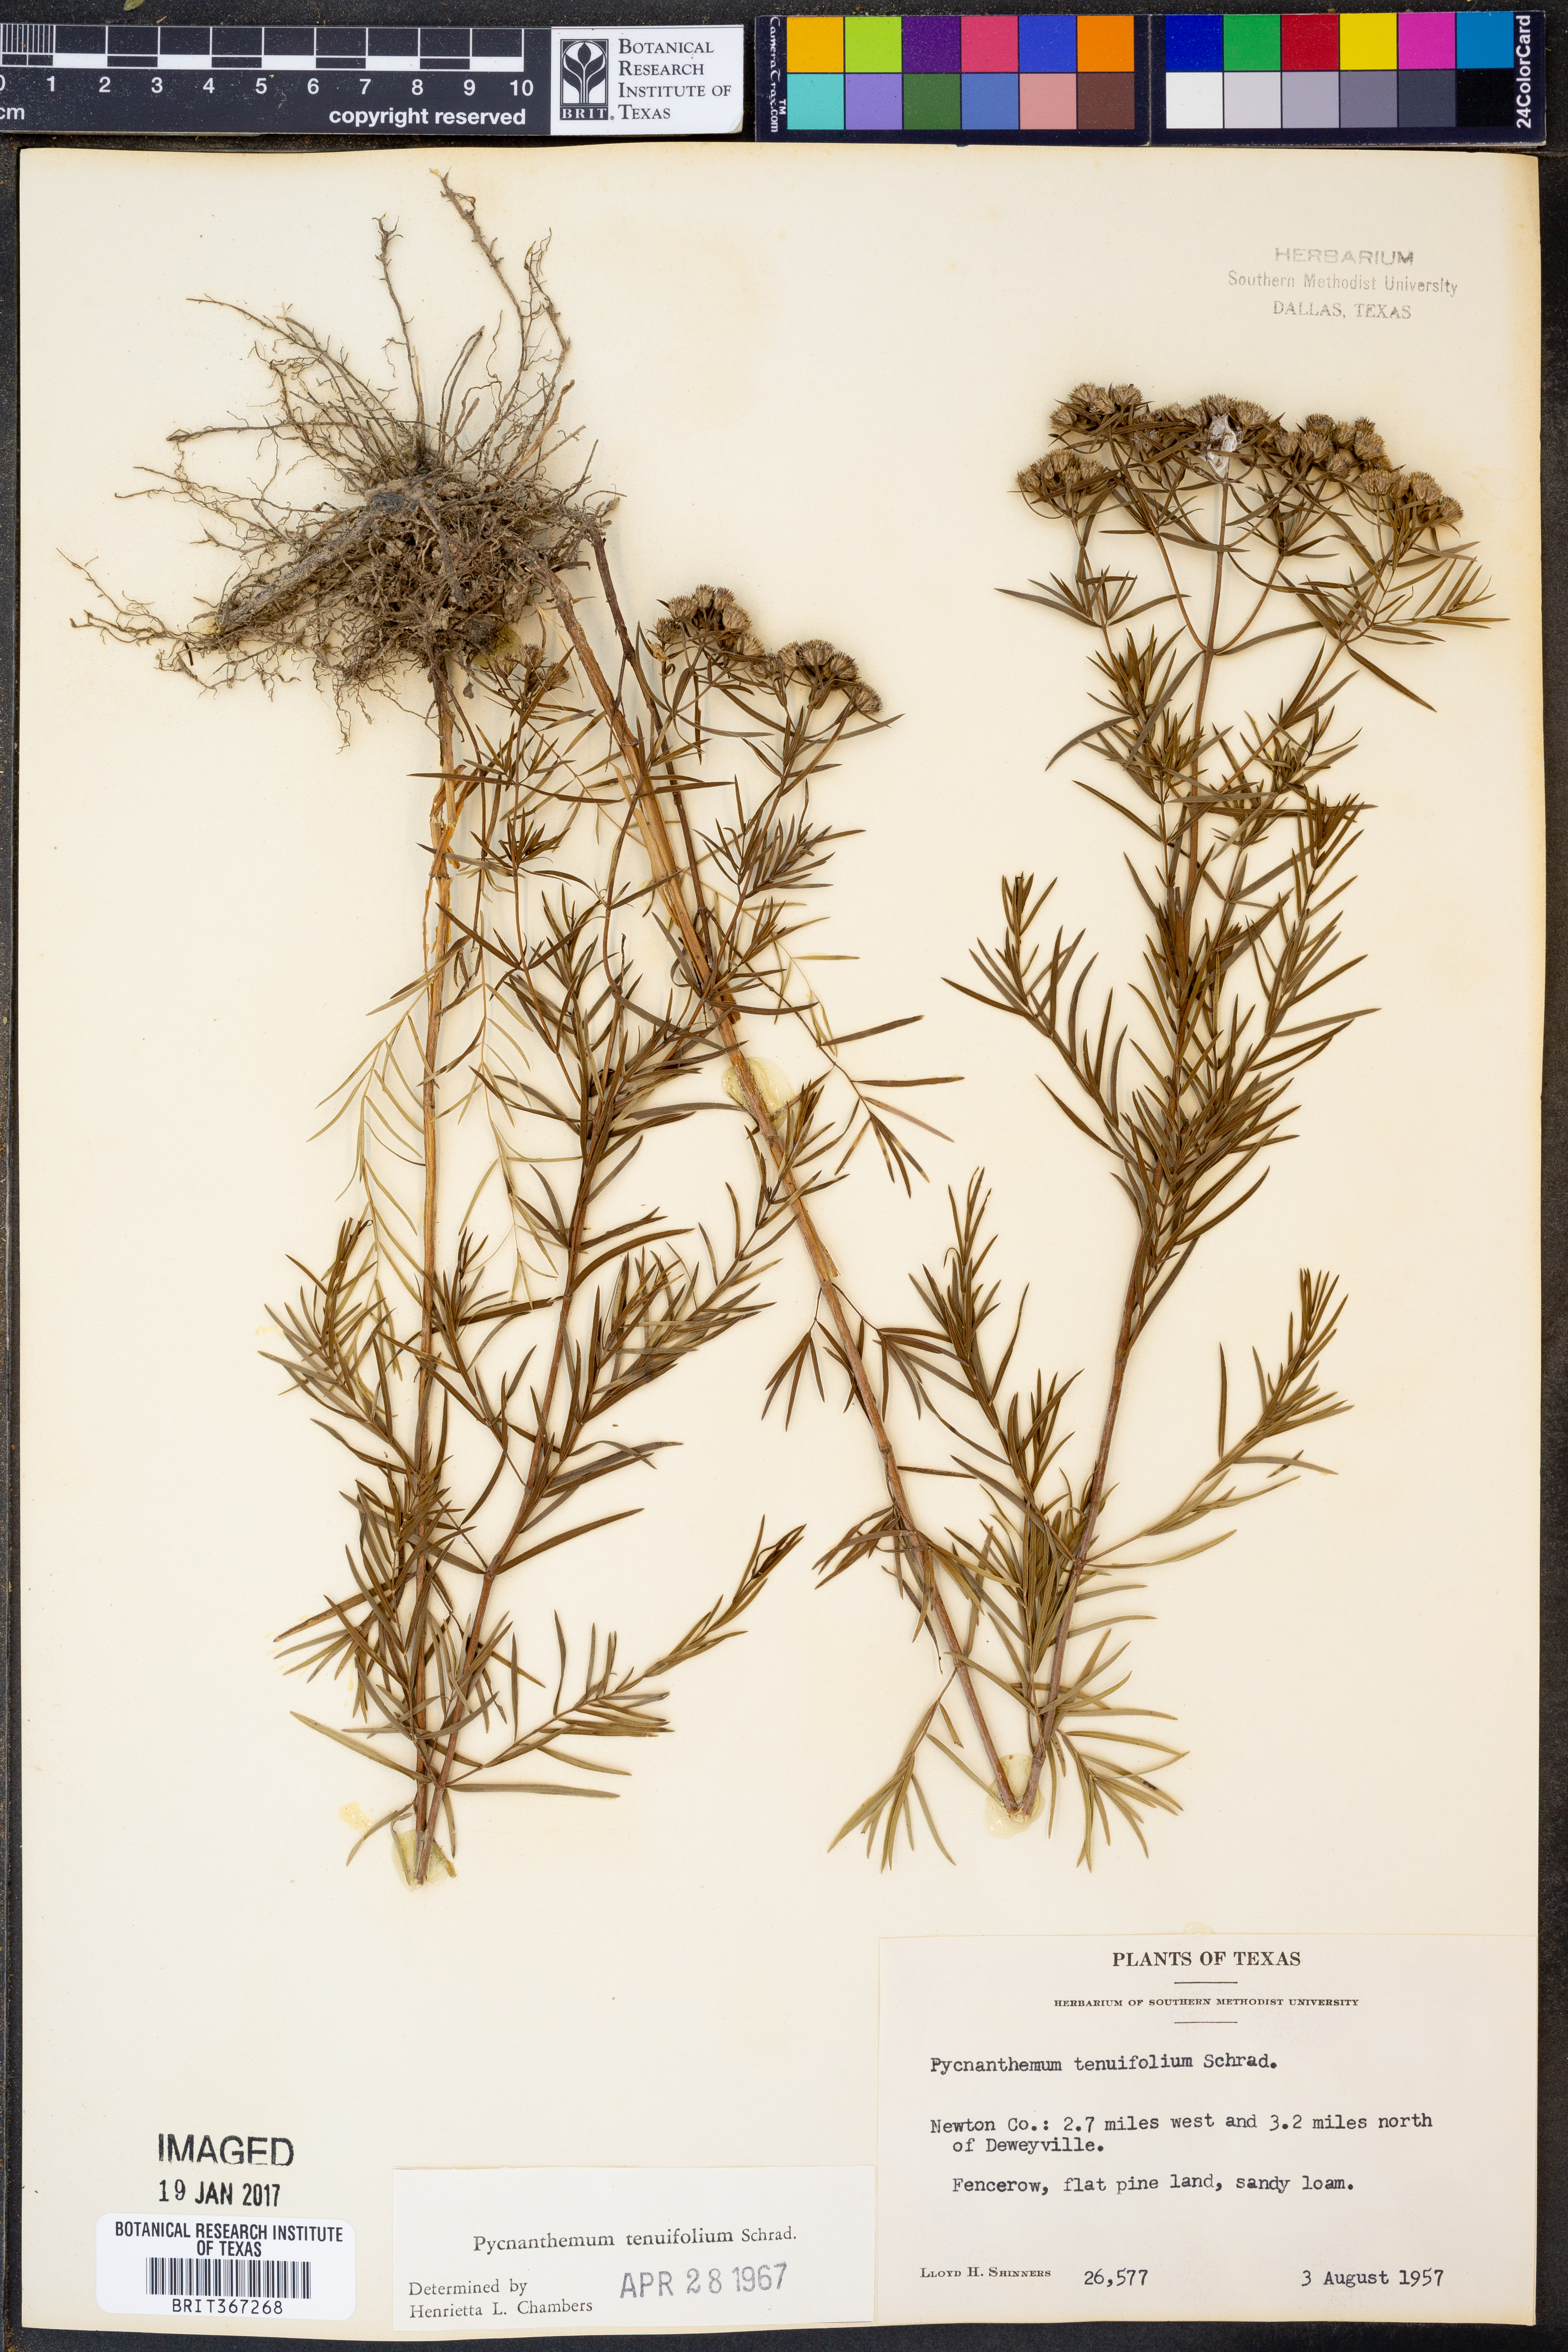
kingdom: Plantae
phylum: Tracheophyta
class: Magnoliopsida
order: Lamiales
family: Lamiaceae
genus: Pycnanthemum
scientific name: Pycnanthemum tenuifolium
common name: Narrow-leaf mountain-mint
